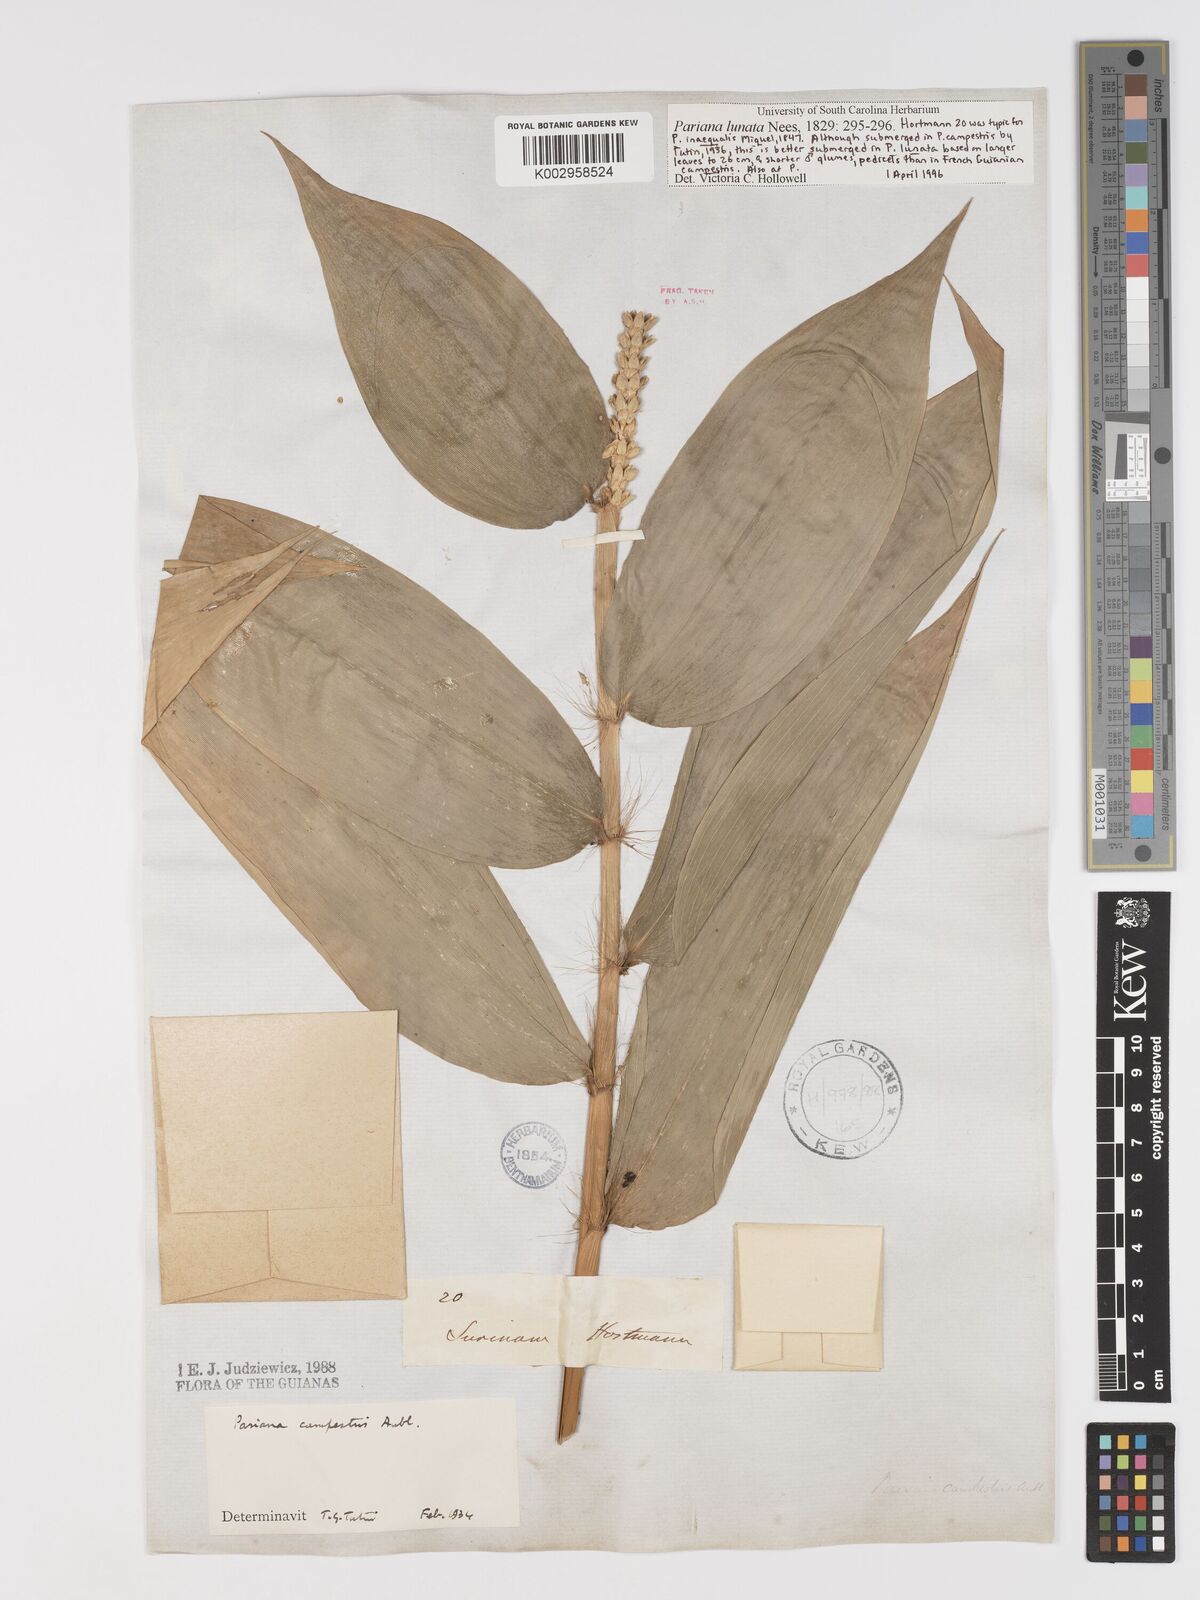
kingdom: Plantae
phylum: Tracheophyta
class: Liliopsida
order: Poales
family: Poaceae
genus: Pariana
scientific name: Pariana campestris
